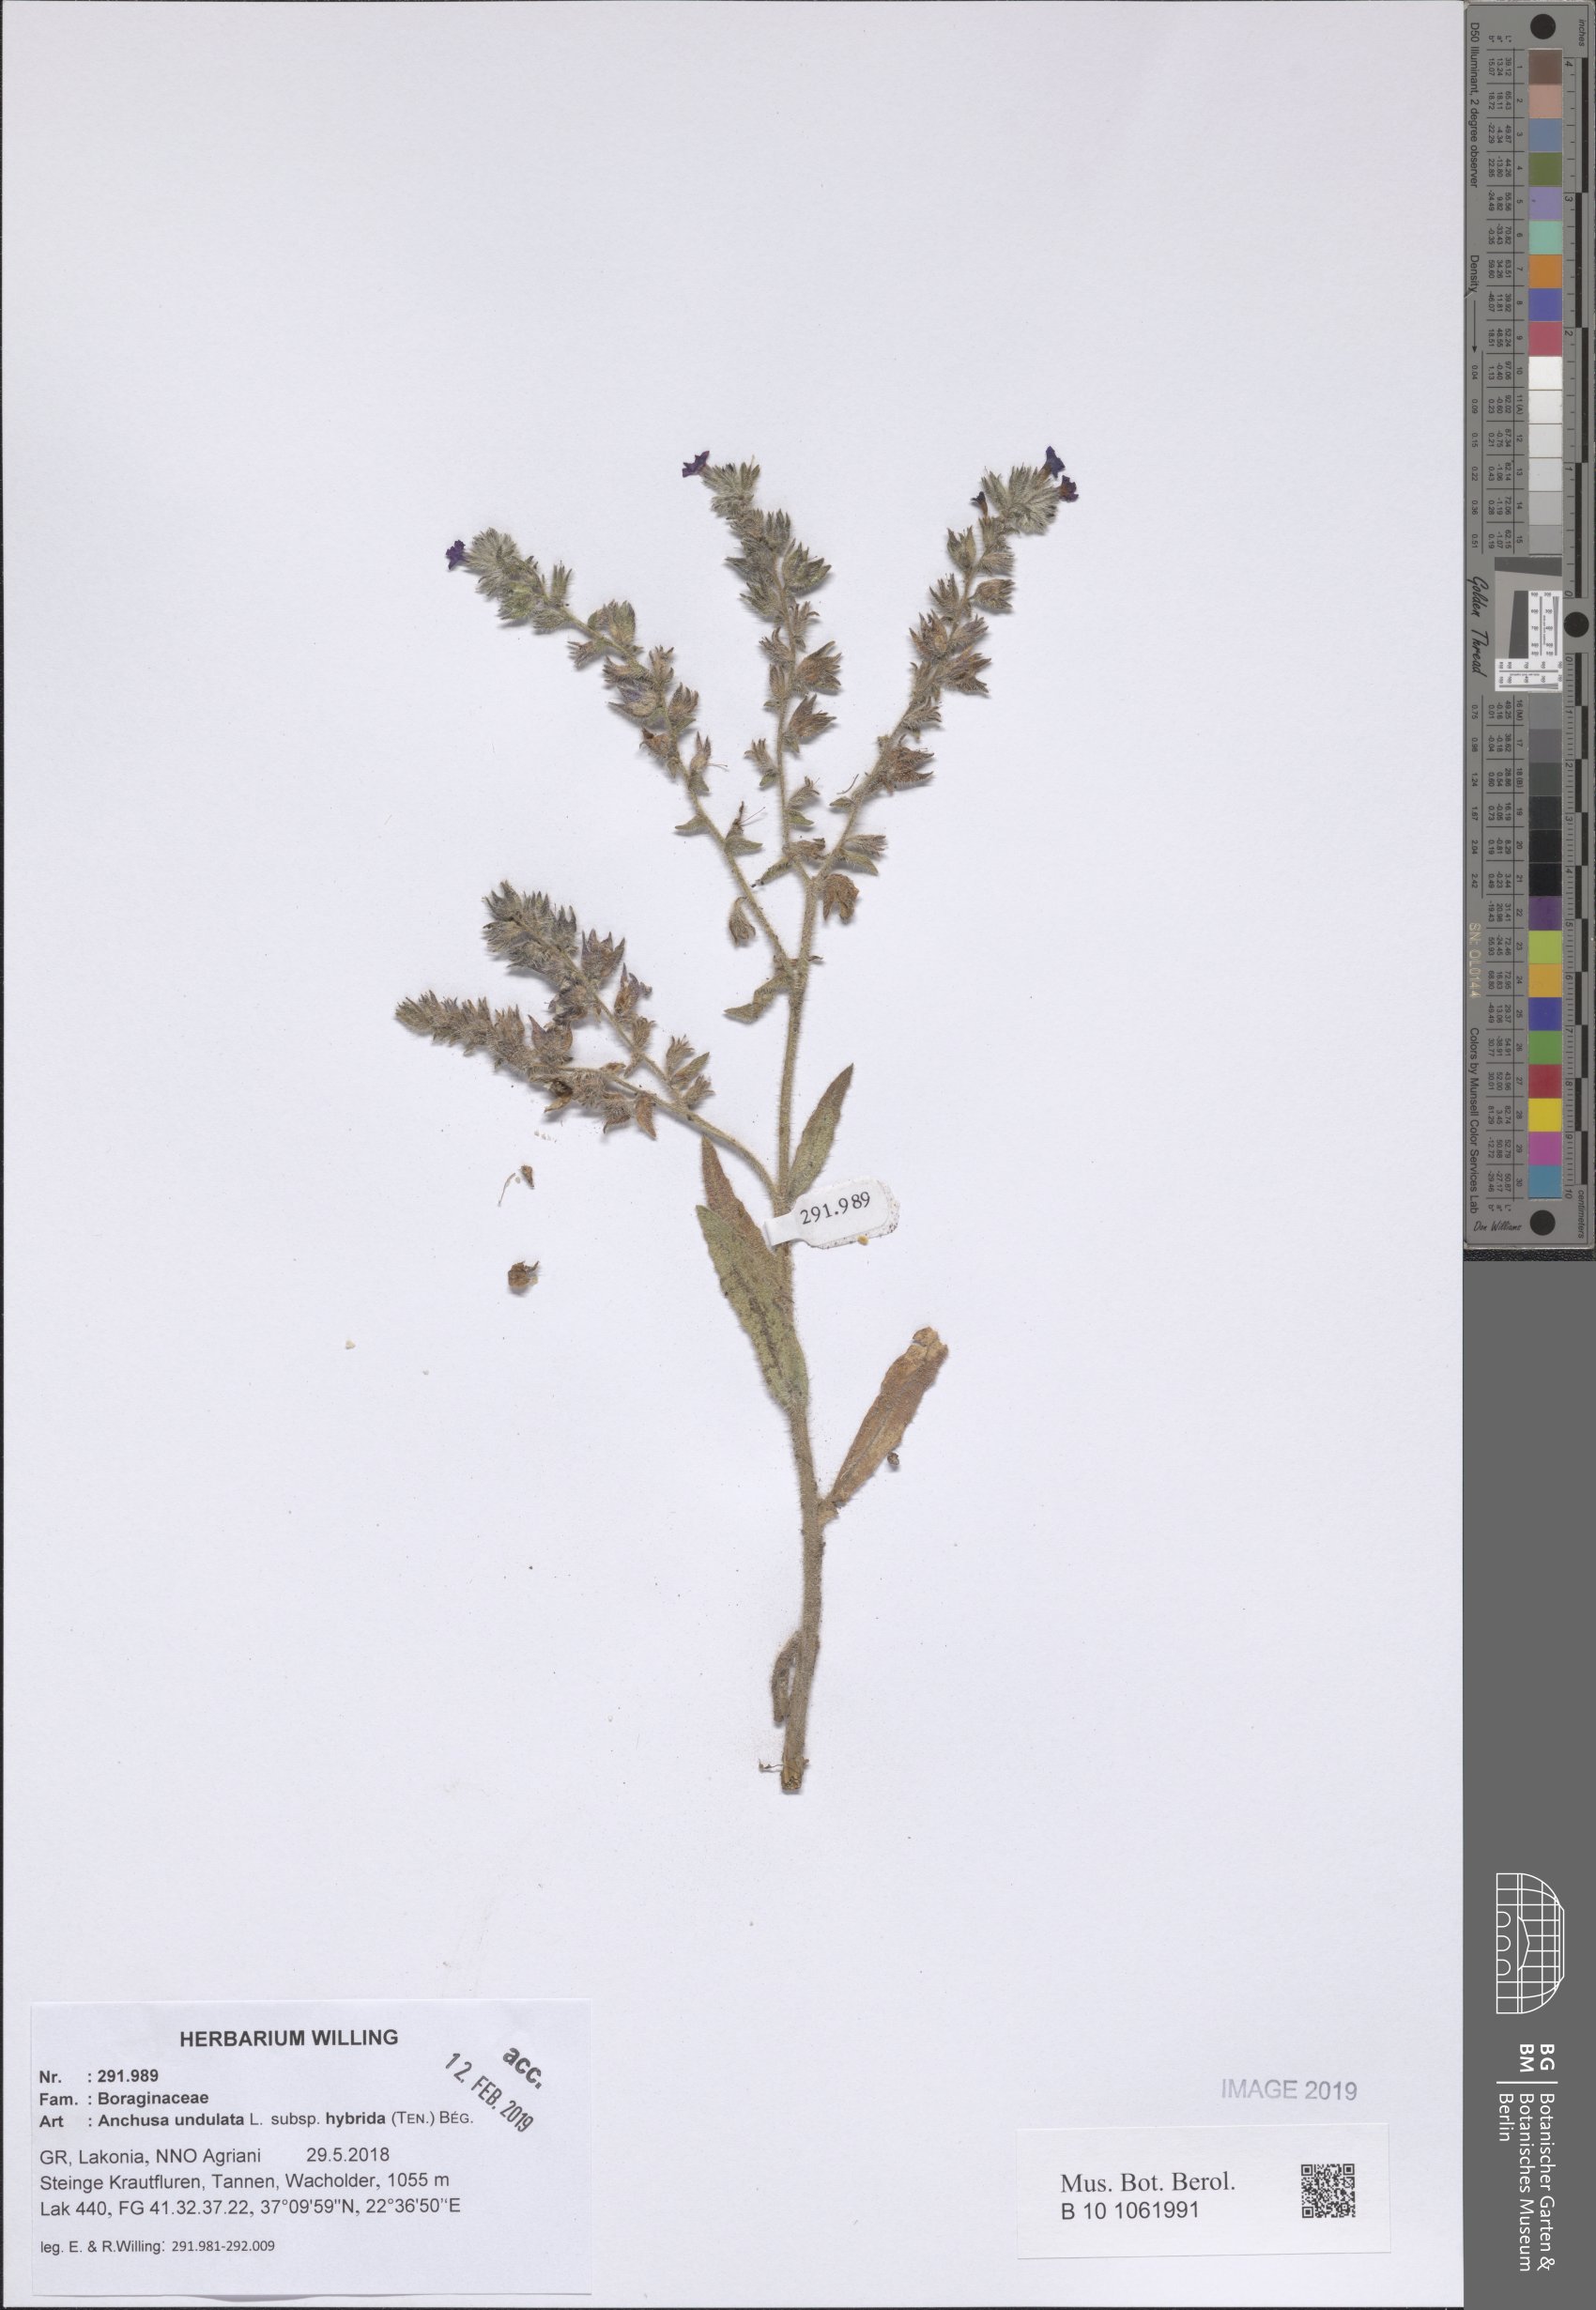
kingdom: Plantae
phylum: Tracheophyta
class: Magnoliopsida
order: Boraginales
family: Boraginaceae
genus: Anchusa
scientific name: Anchusa undulata
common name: Undulate alkanet
